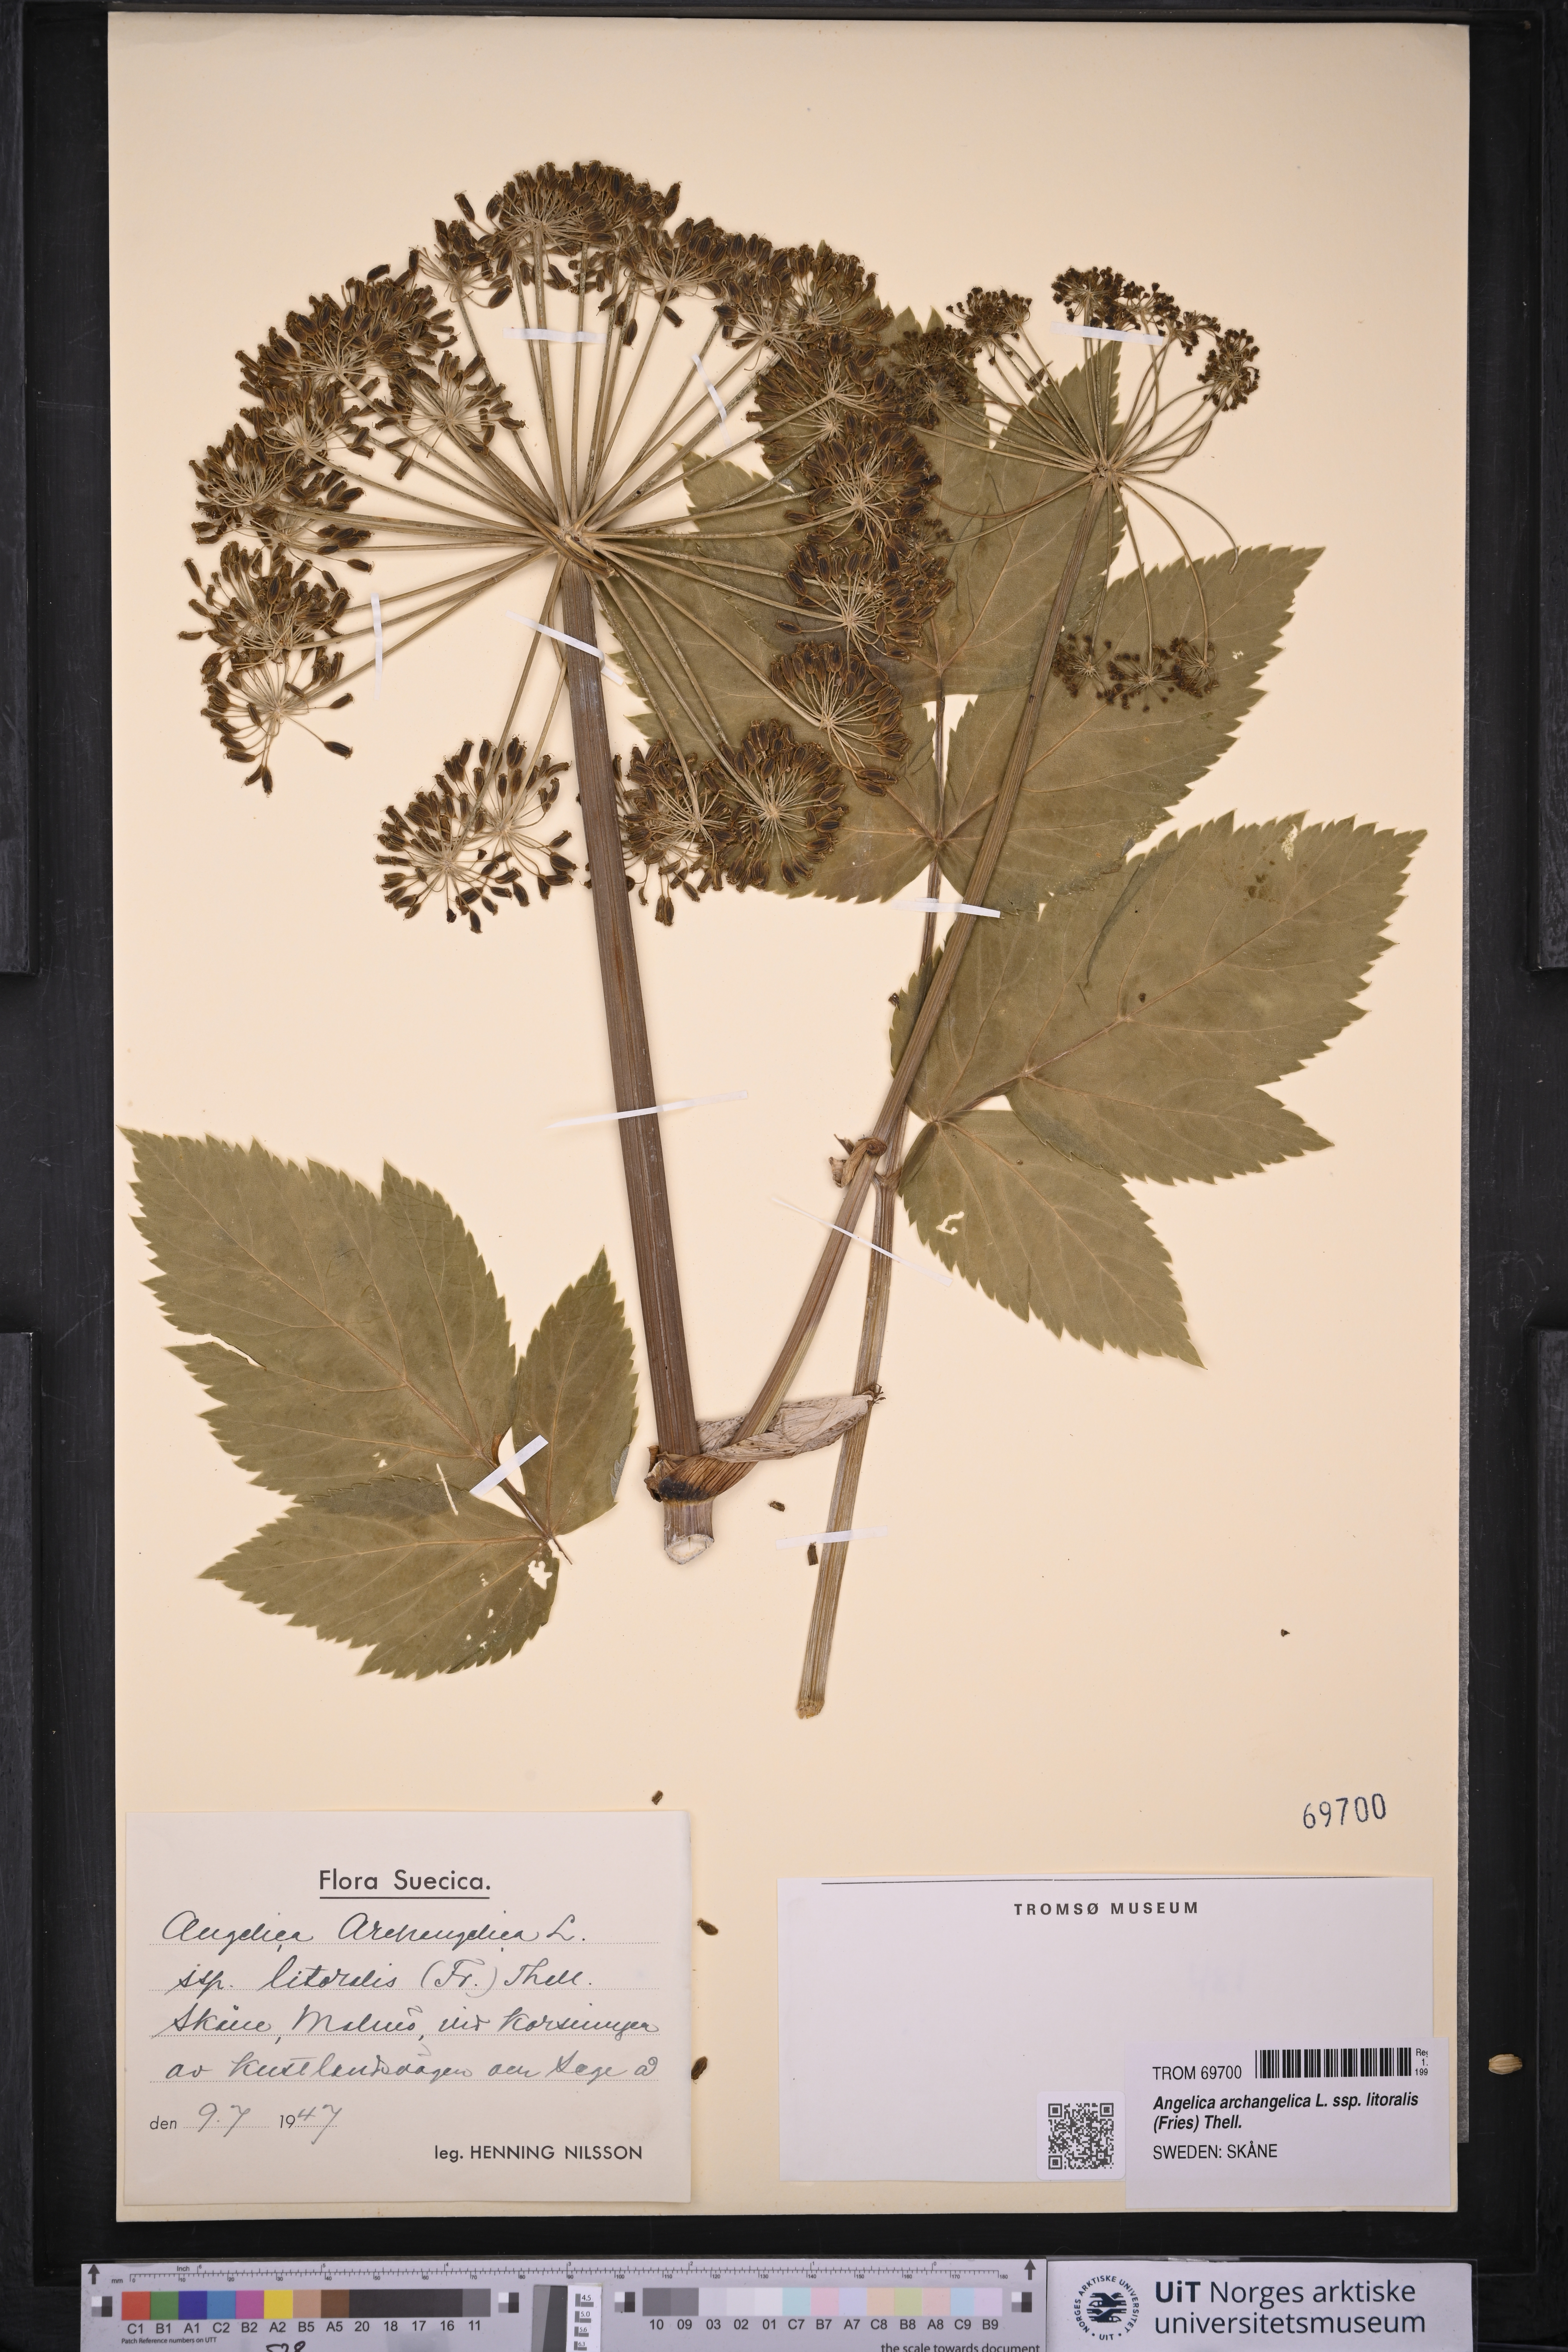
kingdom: Plantae
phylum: Tracheophyta
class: Magnoliopsida
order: Apiales
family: Apiaceae
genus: Angelica
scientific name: Angelica archangelica
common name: Garden angelica
